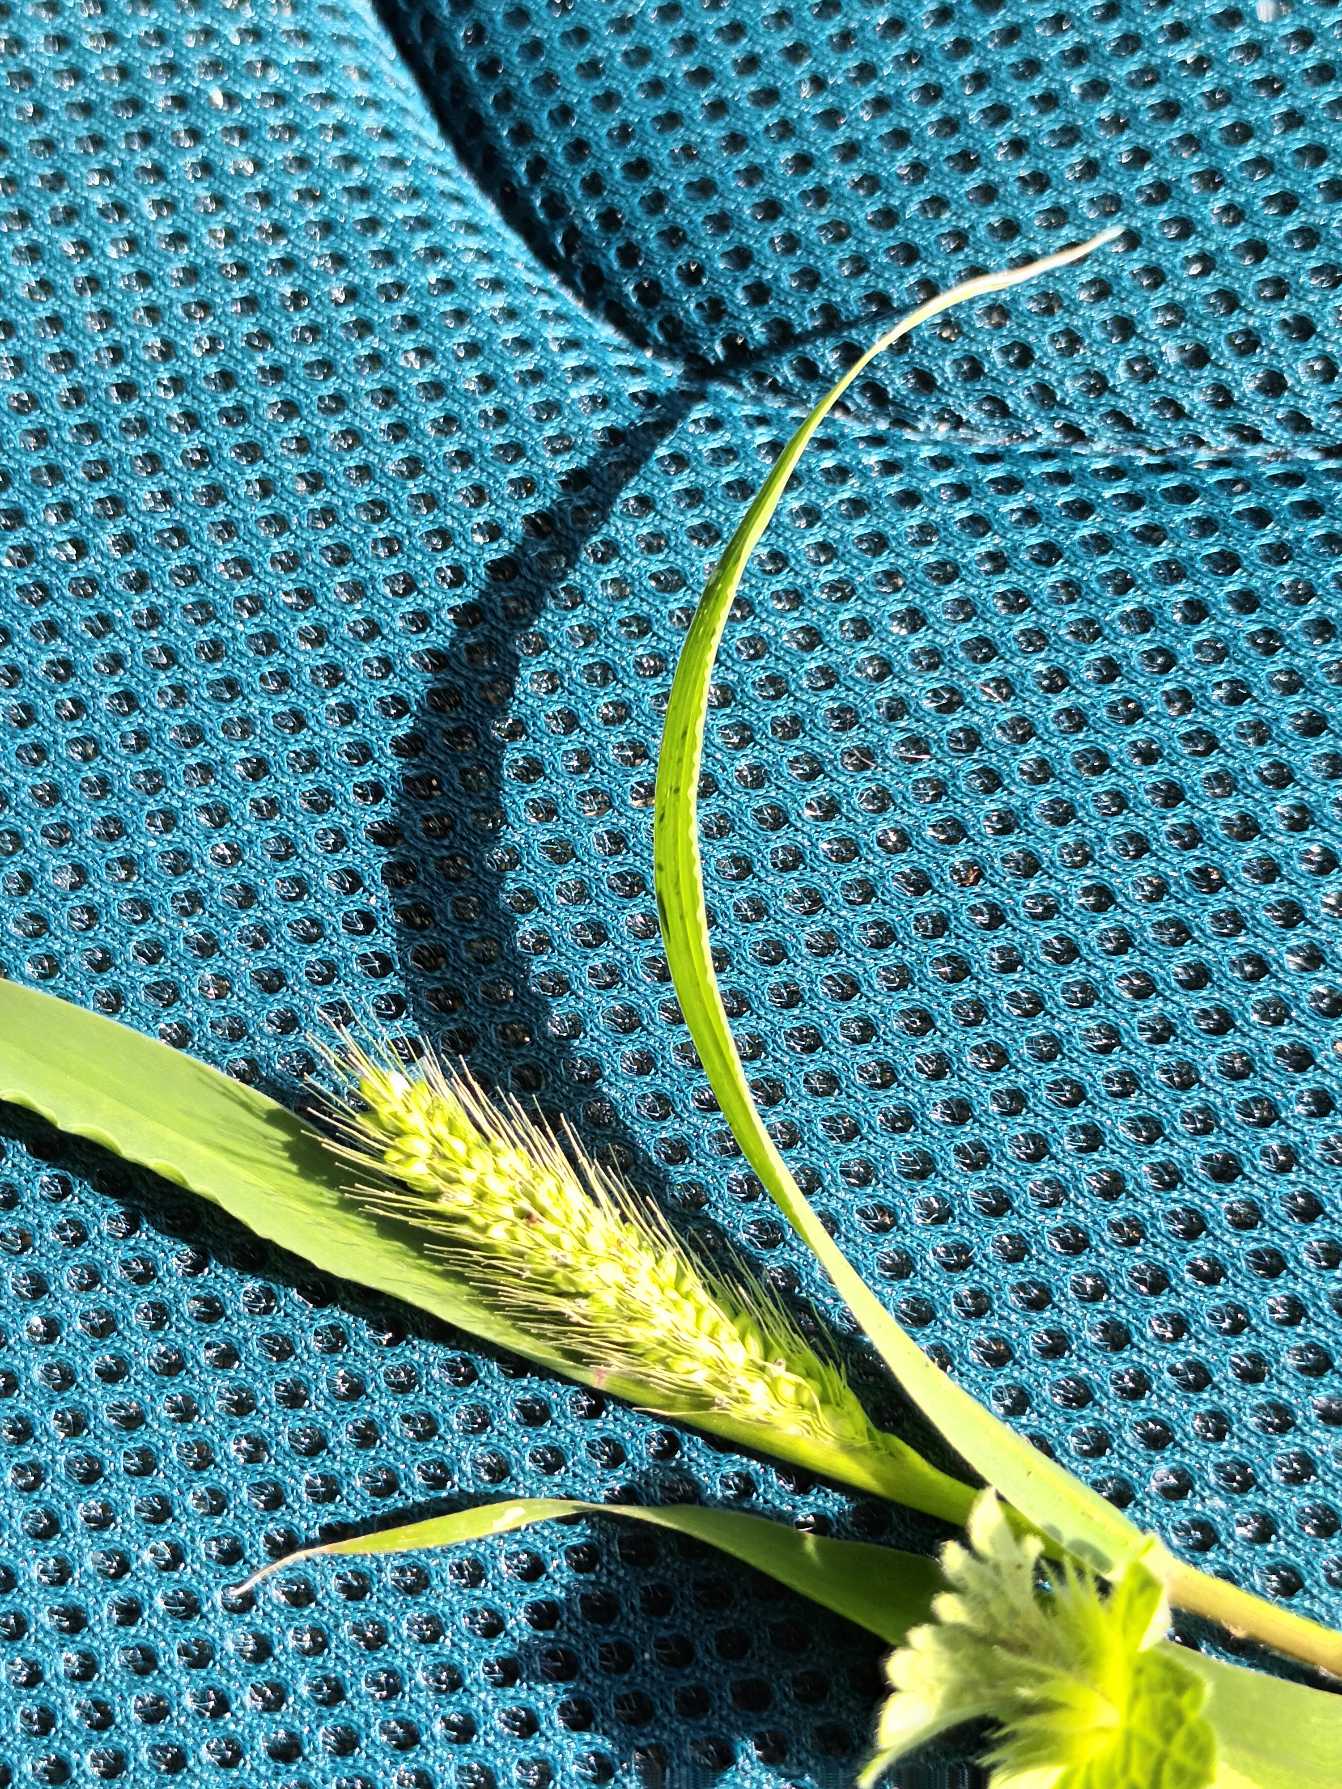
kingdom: Plantae
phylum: Tracheophyta
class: Liliopsida
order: Poales
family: Poaceae
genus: Setaria
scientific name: Setaria viridis
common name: Grøn skærmaks
